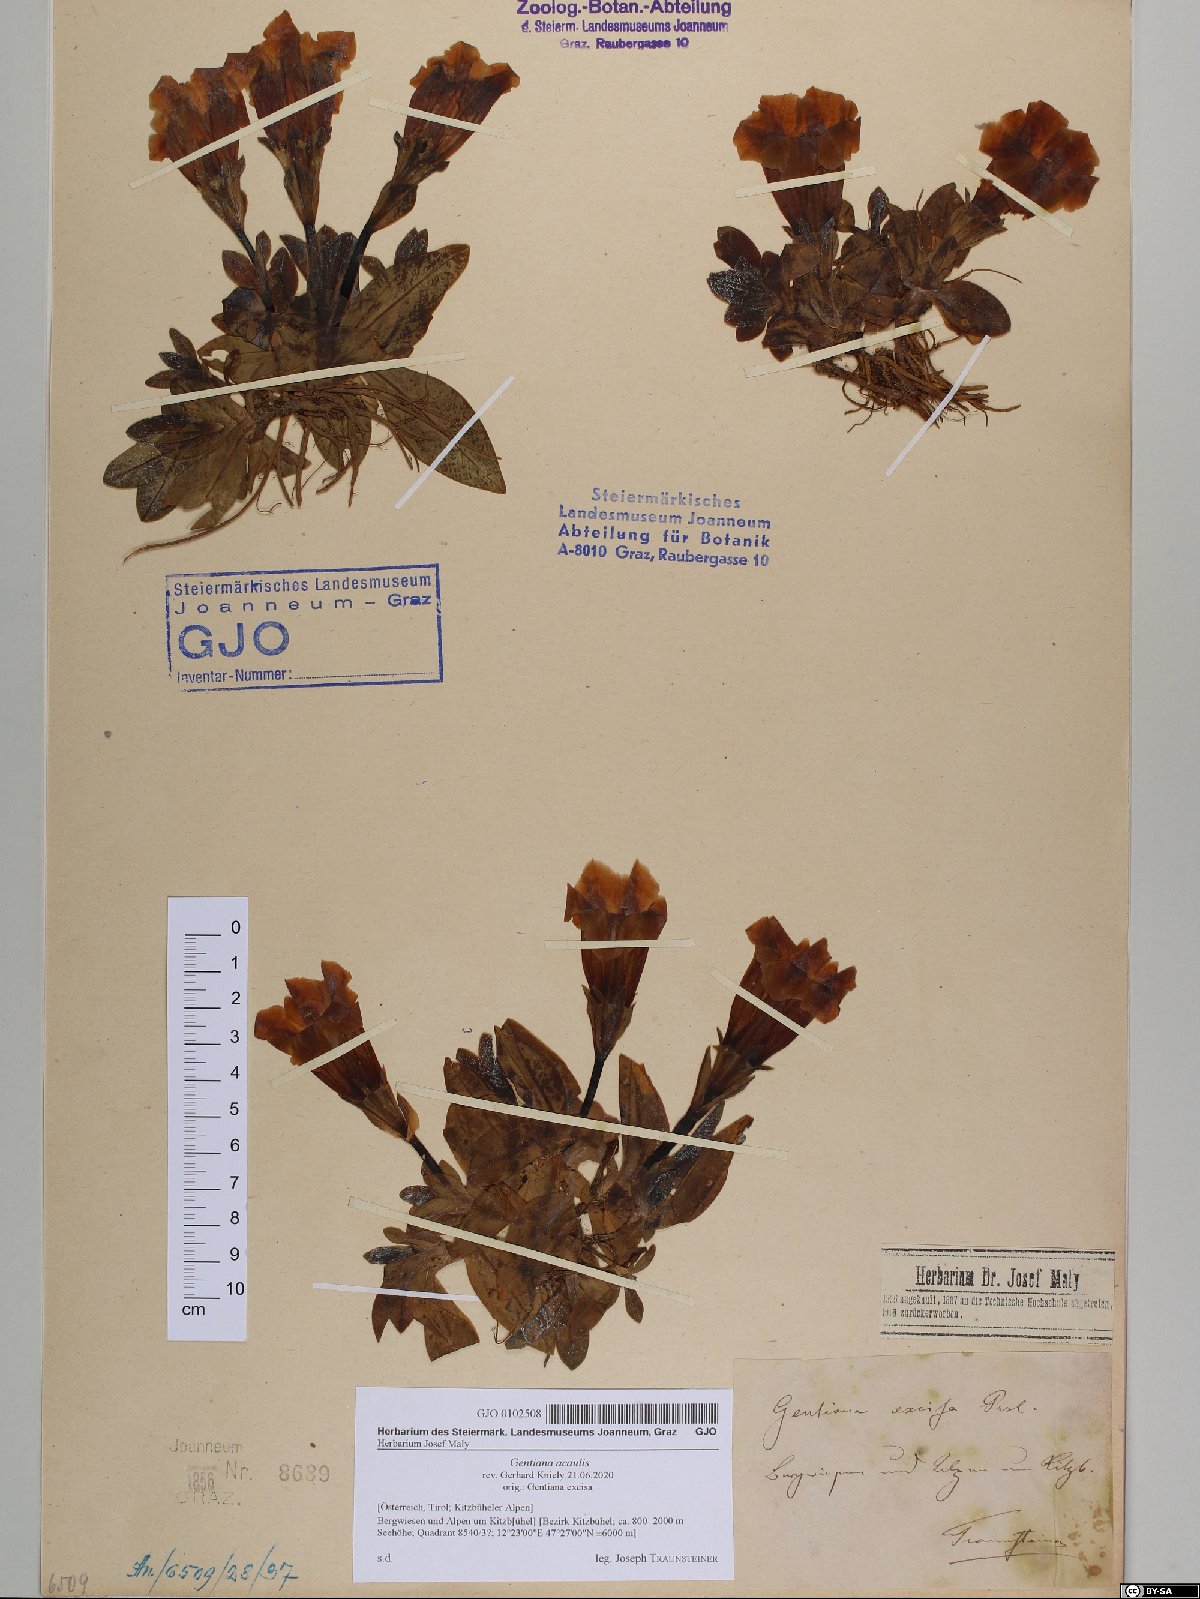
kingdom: Plantae
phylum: Tracheophyta
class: Magnoliopsida
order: Gentianales
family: Gentianaceae
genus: Gentiana
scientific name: Gentiana acaulis
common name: Trumpet gentian
